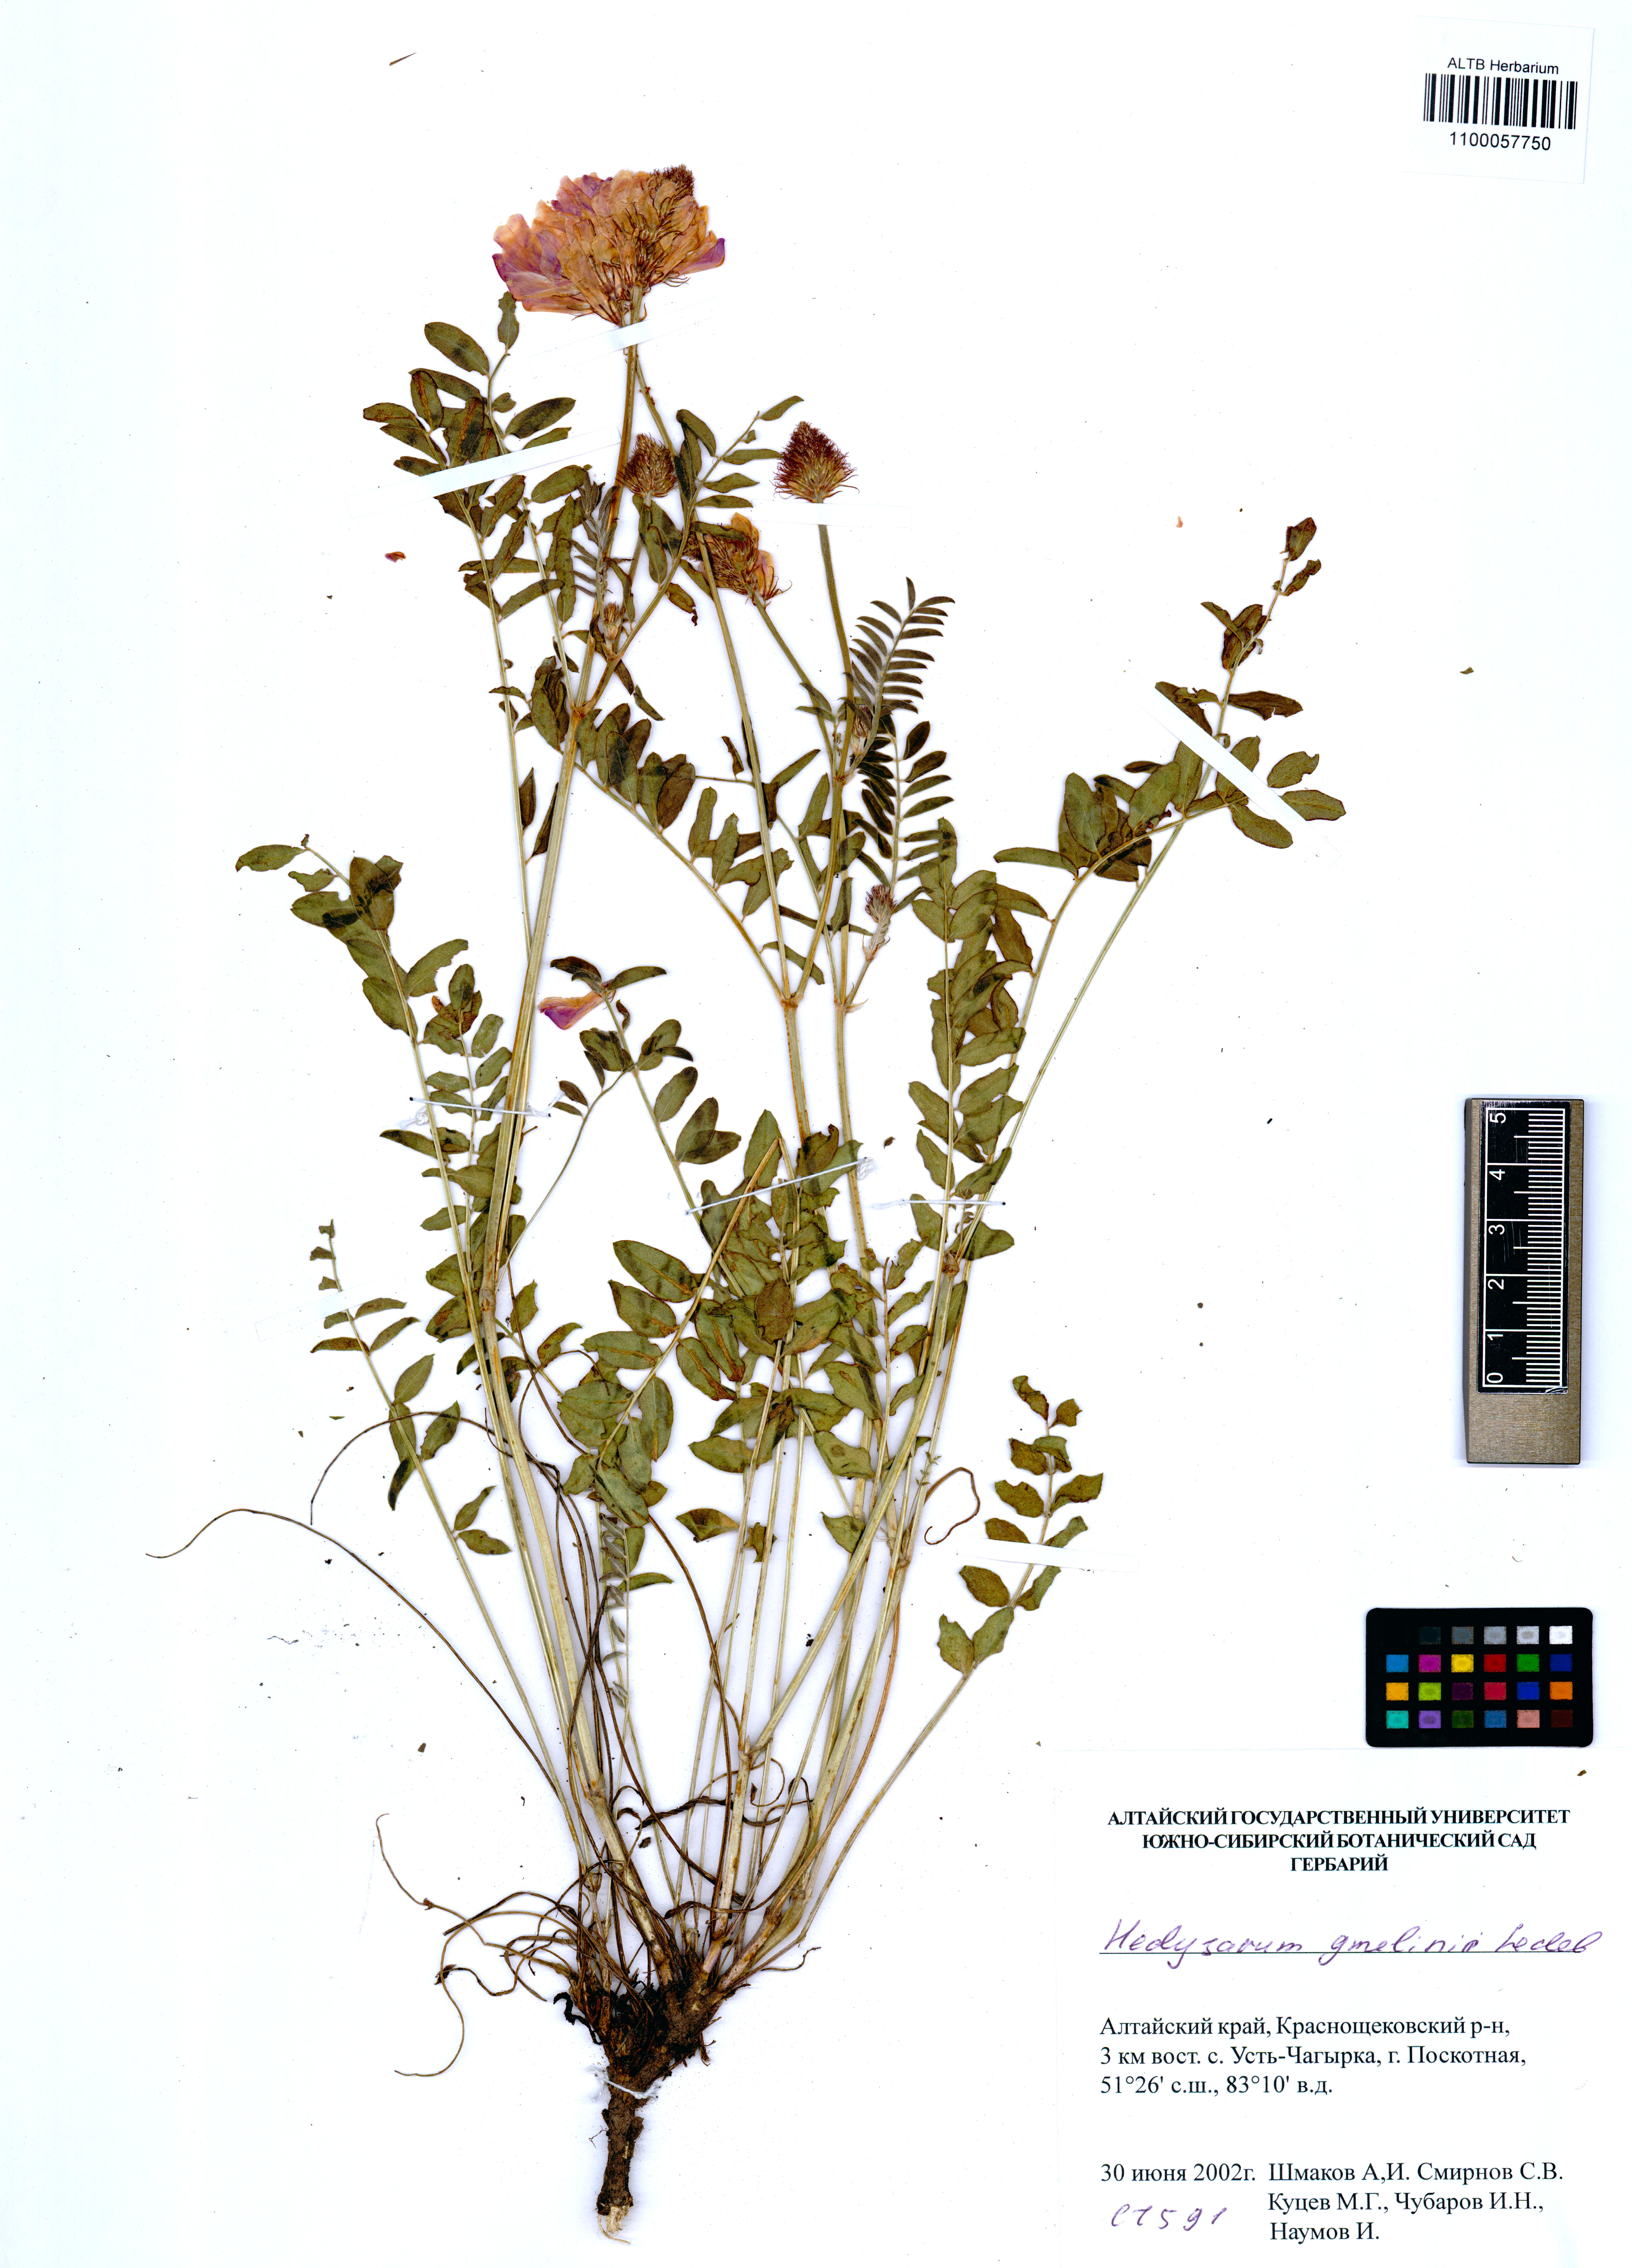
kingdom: Plantae
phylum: Tracheophyta
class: Magnoliopsida
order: Fabales
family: Fabaceae
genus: Hedysarum
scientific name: Hedysarum gmelinii
